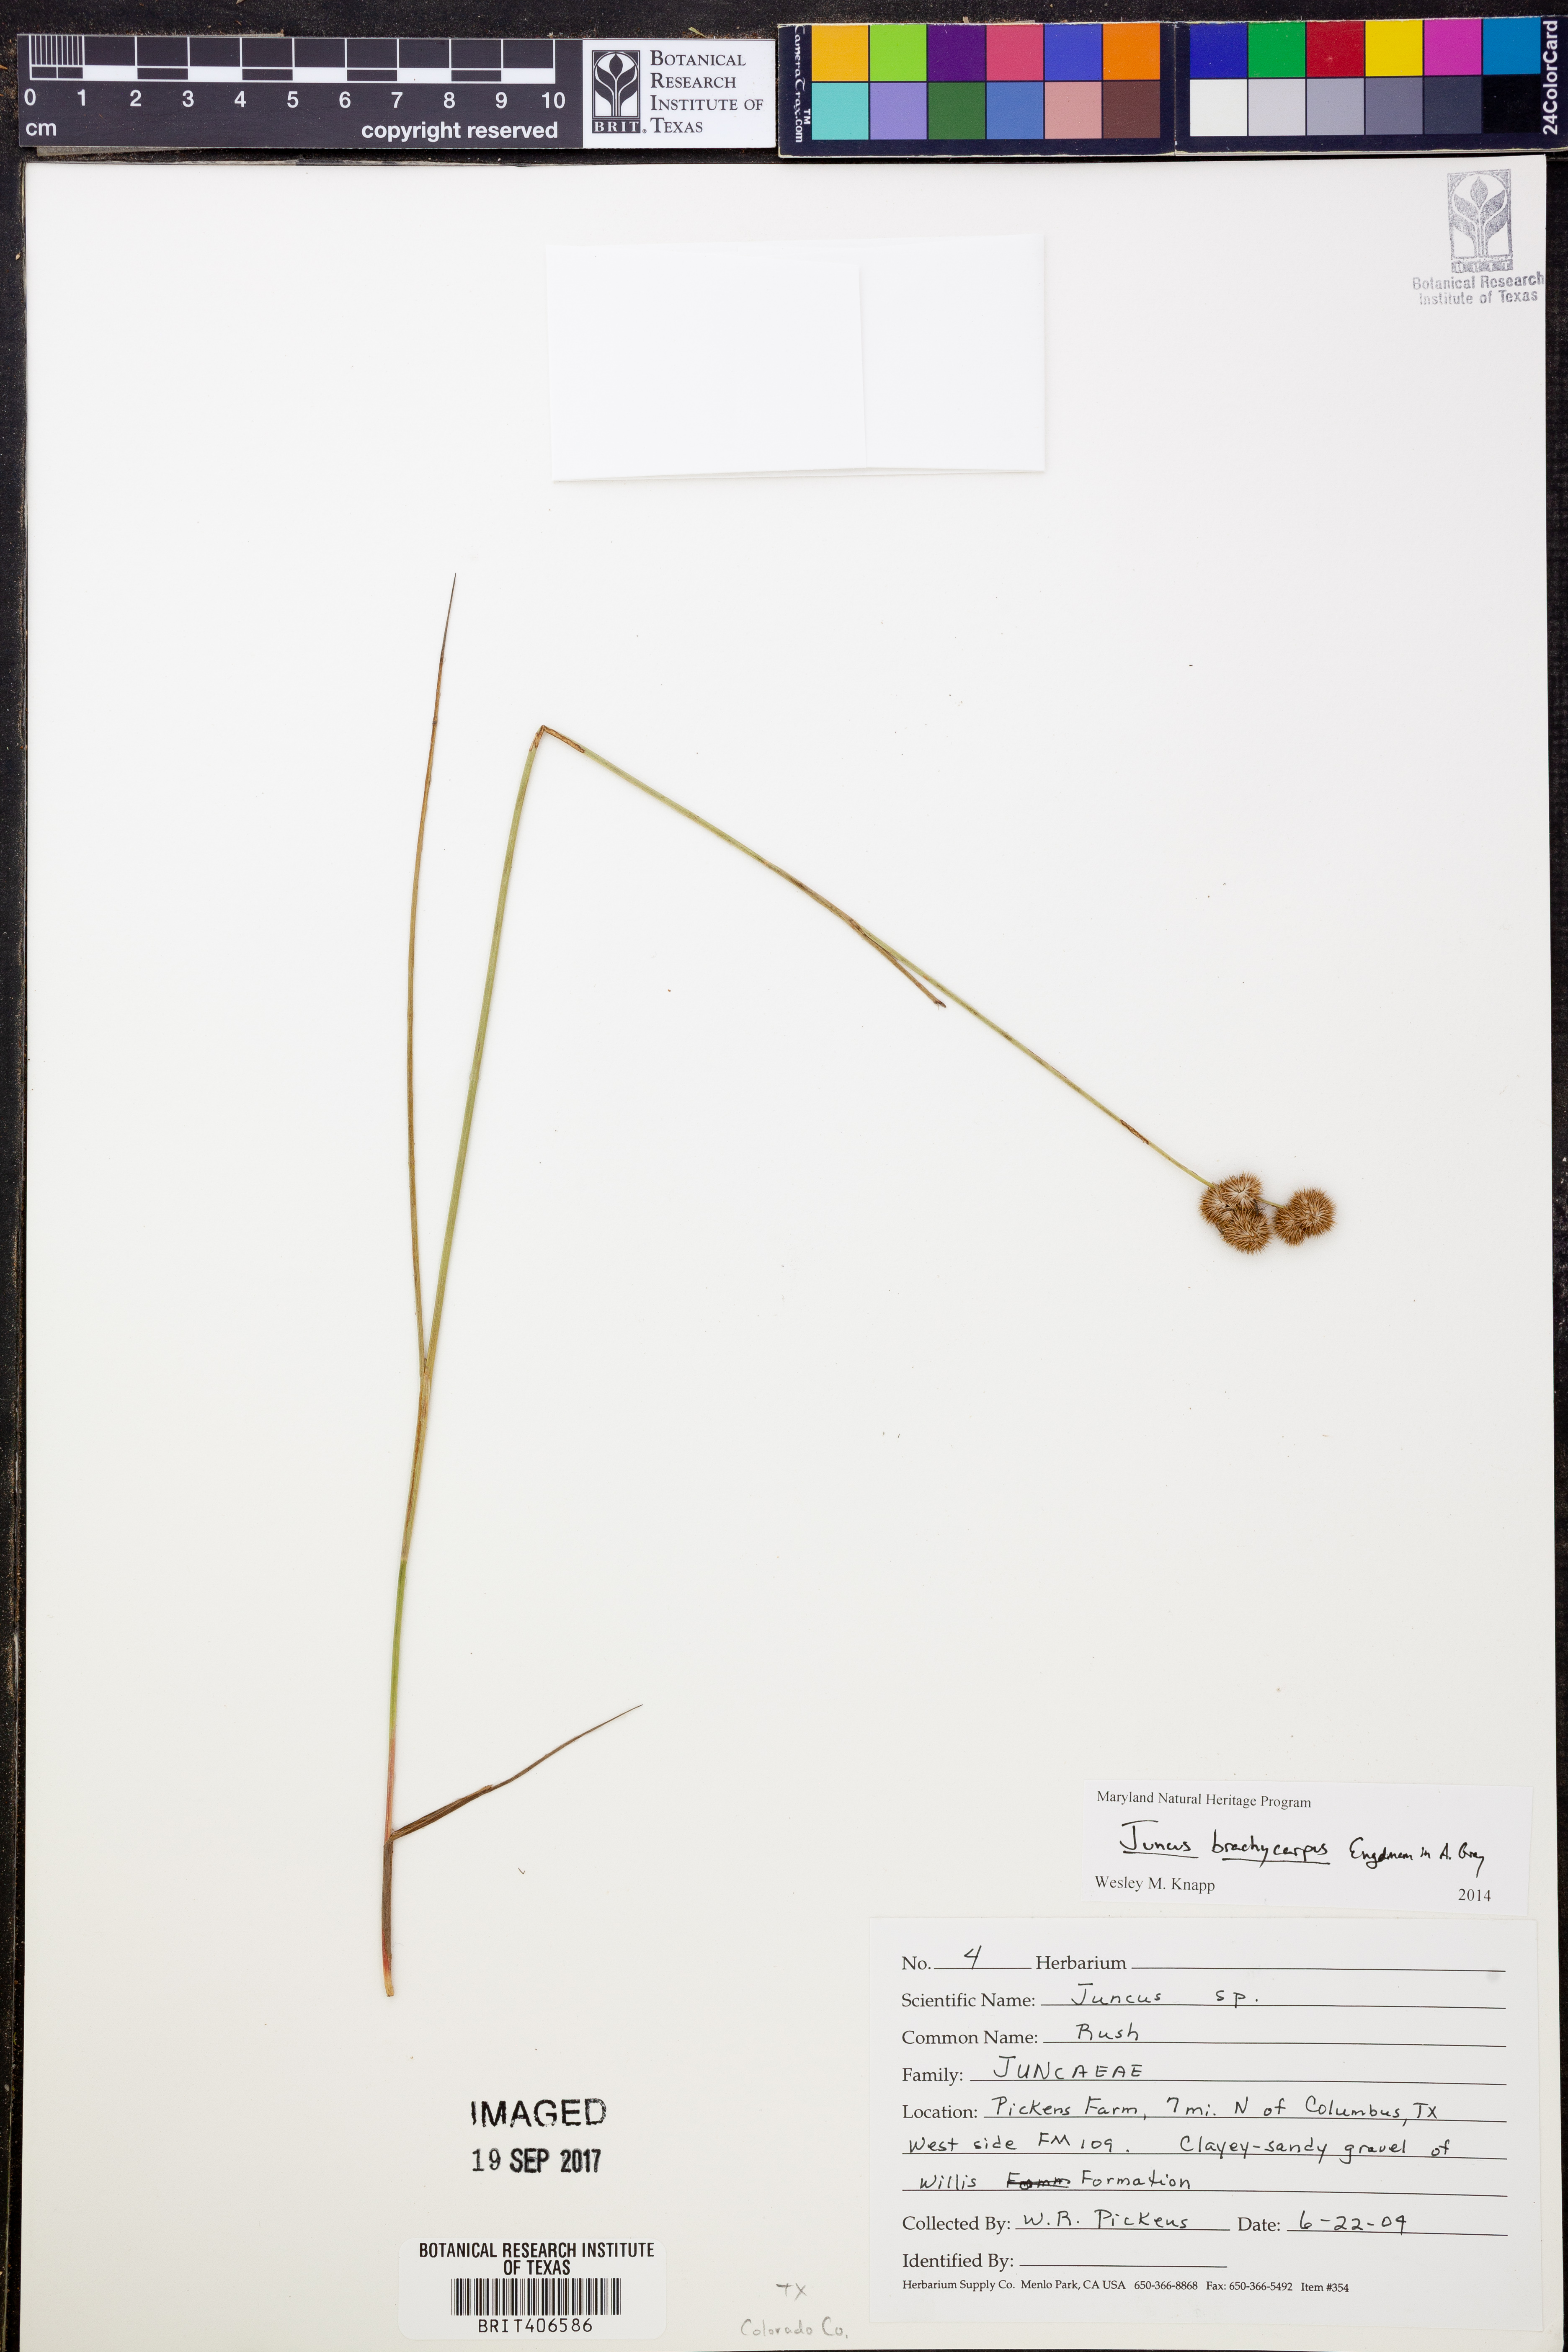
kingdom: Plantae
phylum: Tracheophyta
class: Liliopsida
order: Poales
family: Juncaceae
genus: Juncus
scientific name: Juncus brachycarpus
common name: Shore rush
